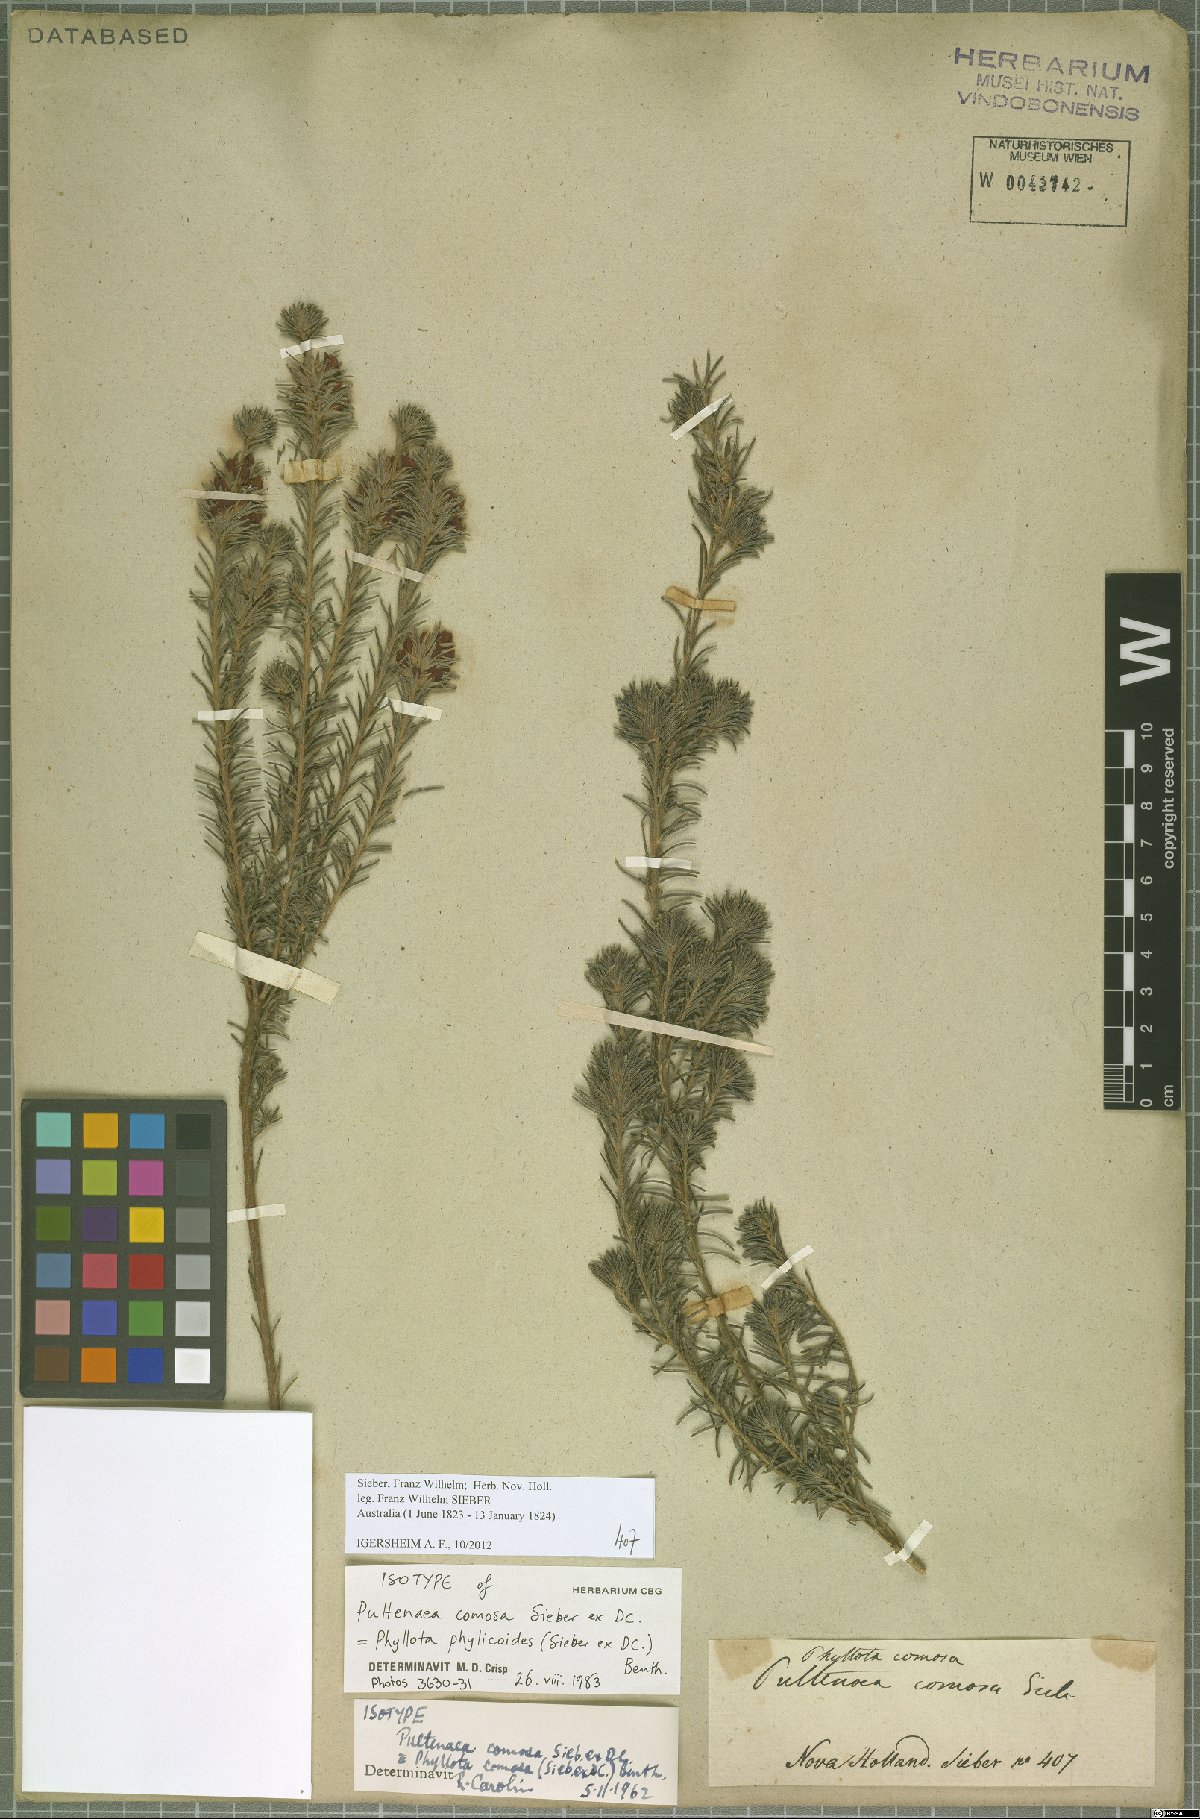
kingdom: Plantae
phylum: Tracheophyta
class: Magnoliopsida
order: Fabales
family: Fabaceae
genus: Phyllota
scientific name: Phyllota phylicoides
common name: Heath phyllota
